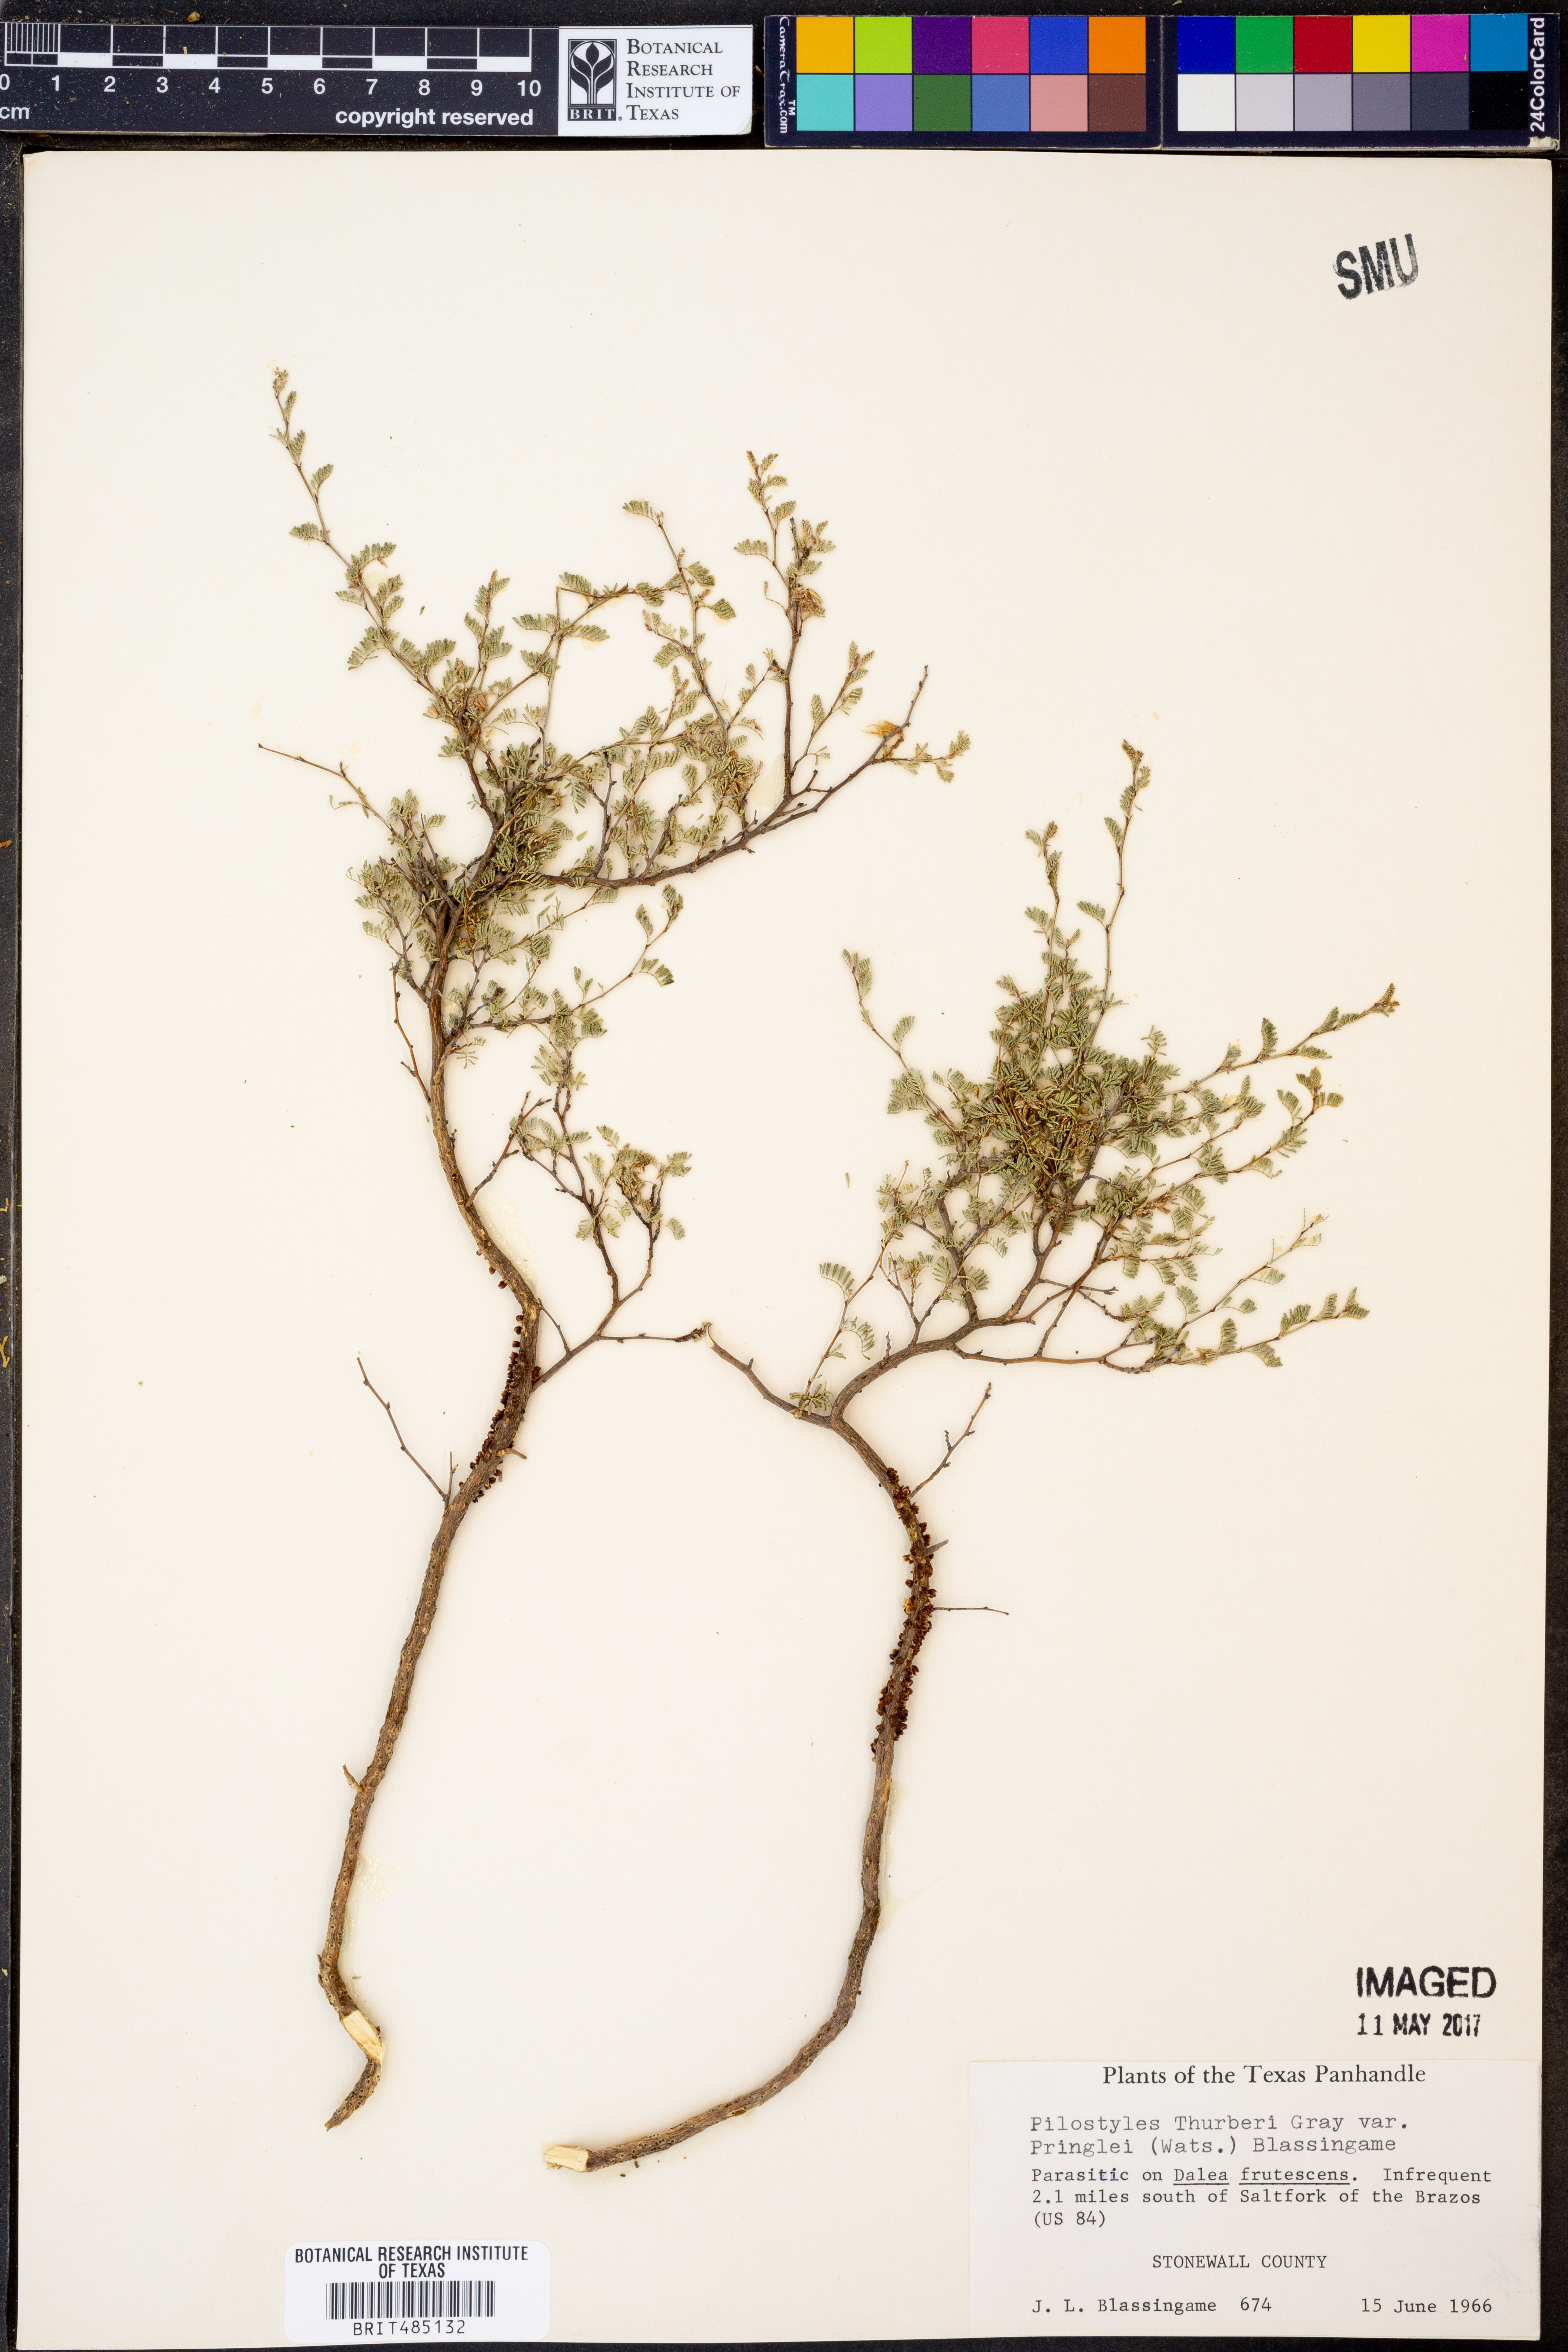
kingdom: Plantae
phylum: Tracheophyta
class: Magnoliopsida
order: Cucurbitales
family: Apodanthaceae
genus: Pilostyles
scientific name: Pilostyles thurberi
